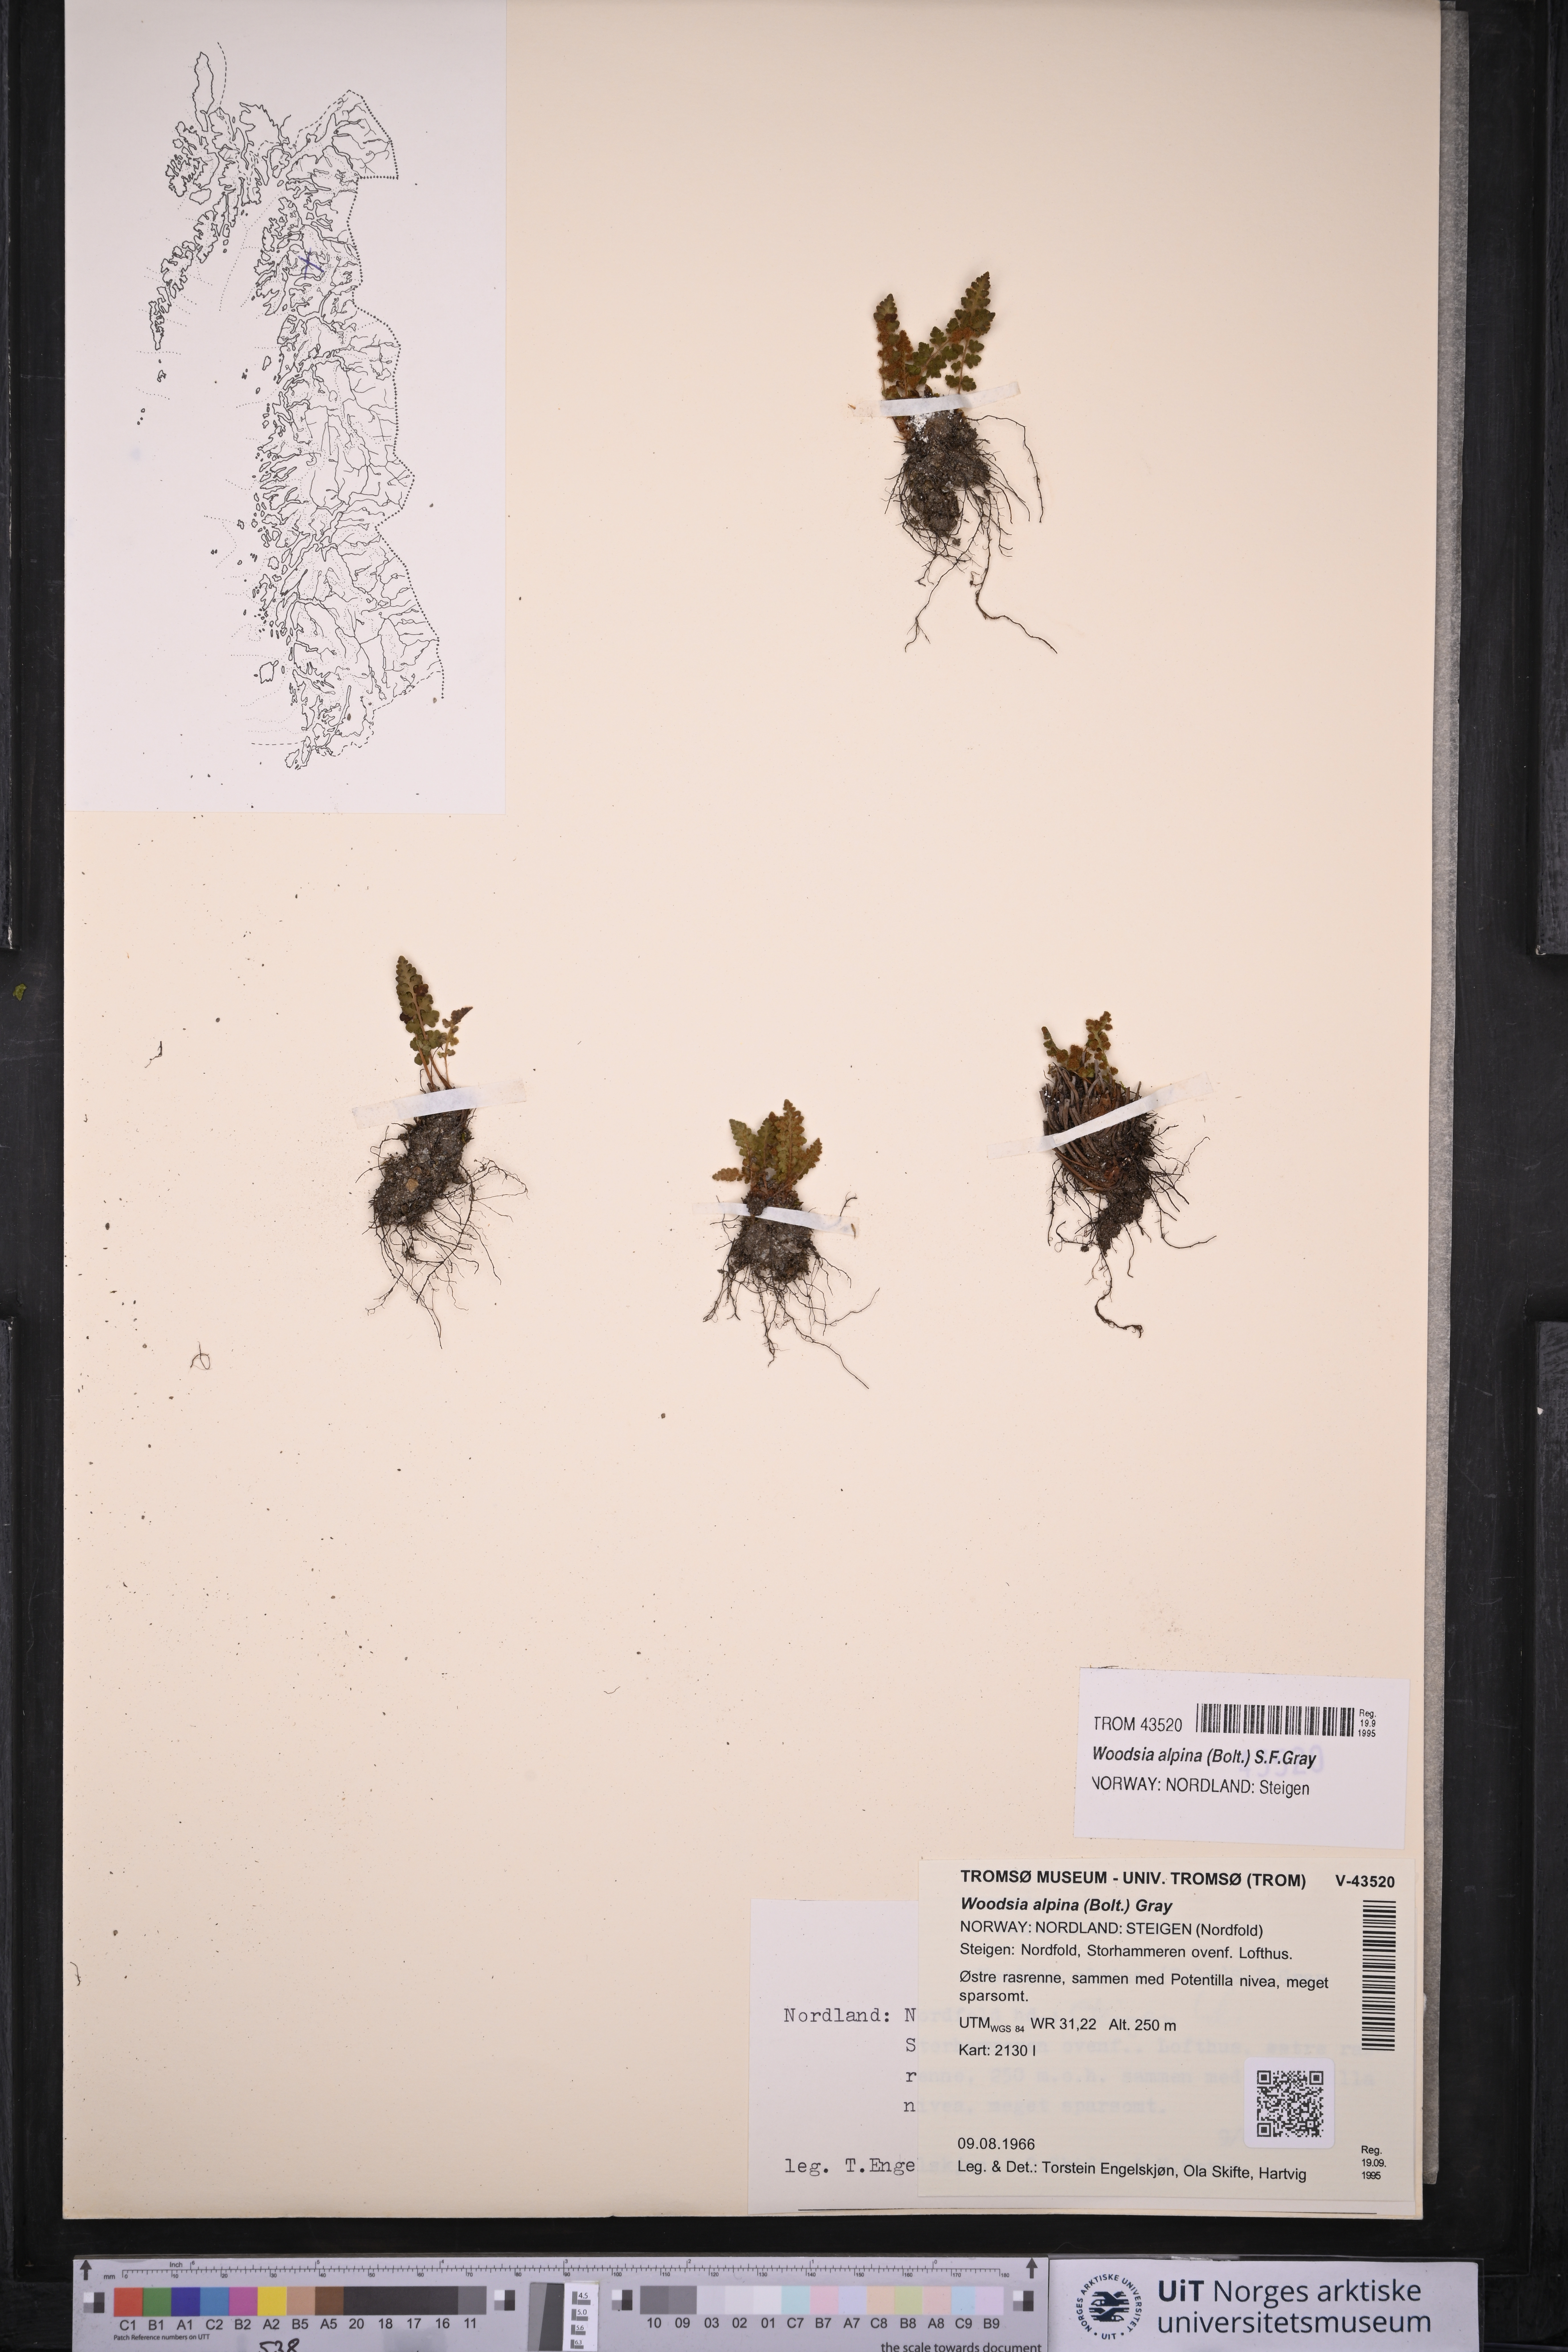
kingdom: Plantae
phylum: Tracheophyta
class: Polypodiopsida
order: Polypodiales
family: Woodsiaceae
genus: Woodsia
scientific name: Woodsia alpina
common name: Alpine woodsia
